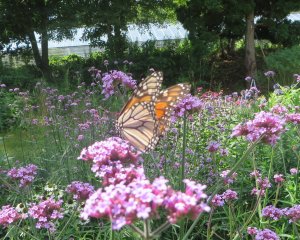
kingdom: Animalia
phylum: Arthropoda
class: Insecta
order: Lepidoptera
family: Nymphalidae
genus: Danaus
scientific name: Danaus plexippus
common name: Monarch
